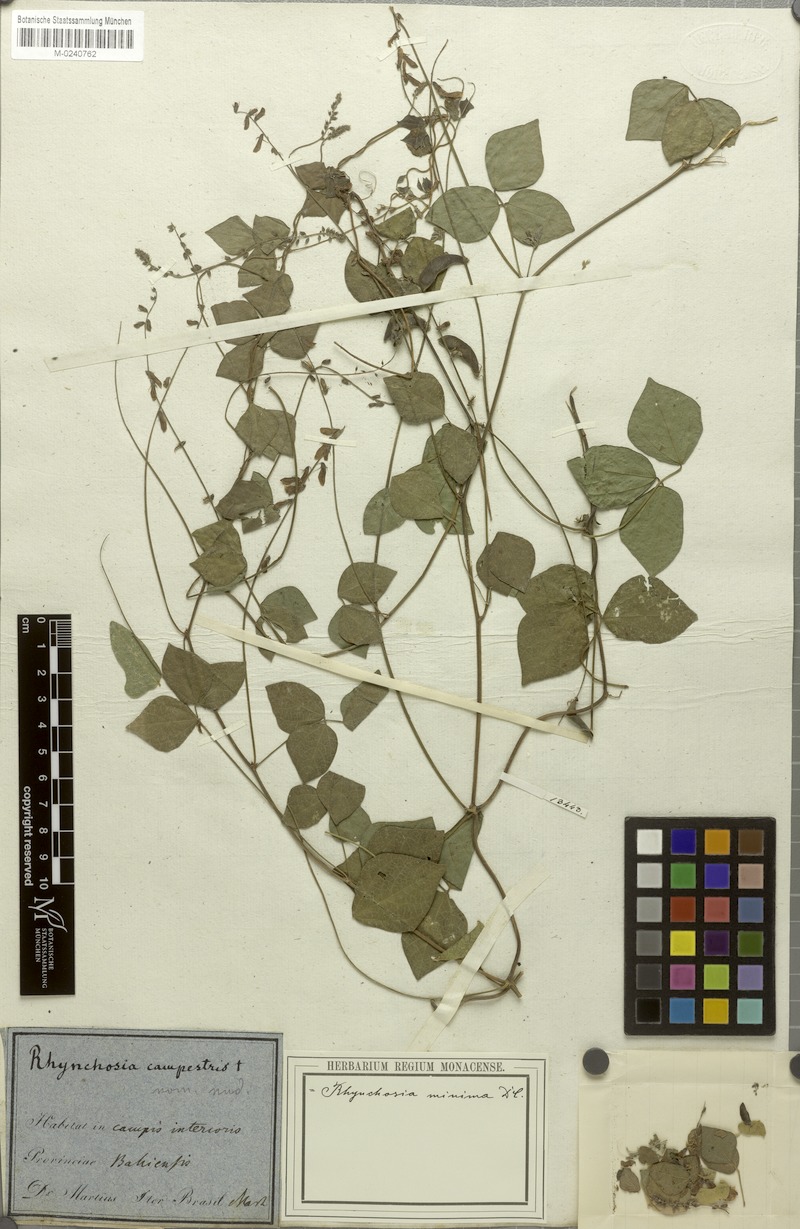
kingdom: Plantae
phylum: Tracheophyta
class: Magnoliopsida
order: Fabales
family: Fabaceae
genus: Rhynchosia
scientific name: Rhynchosia minima
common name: Least snoutbean
